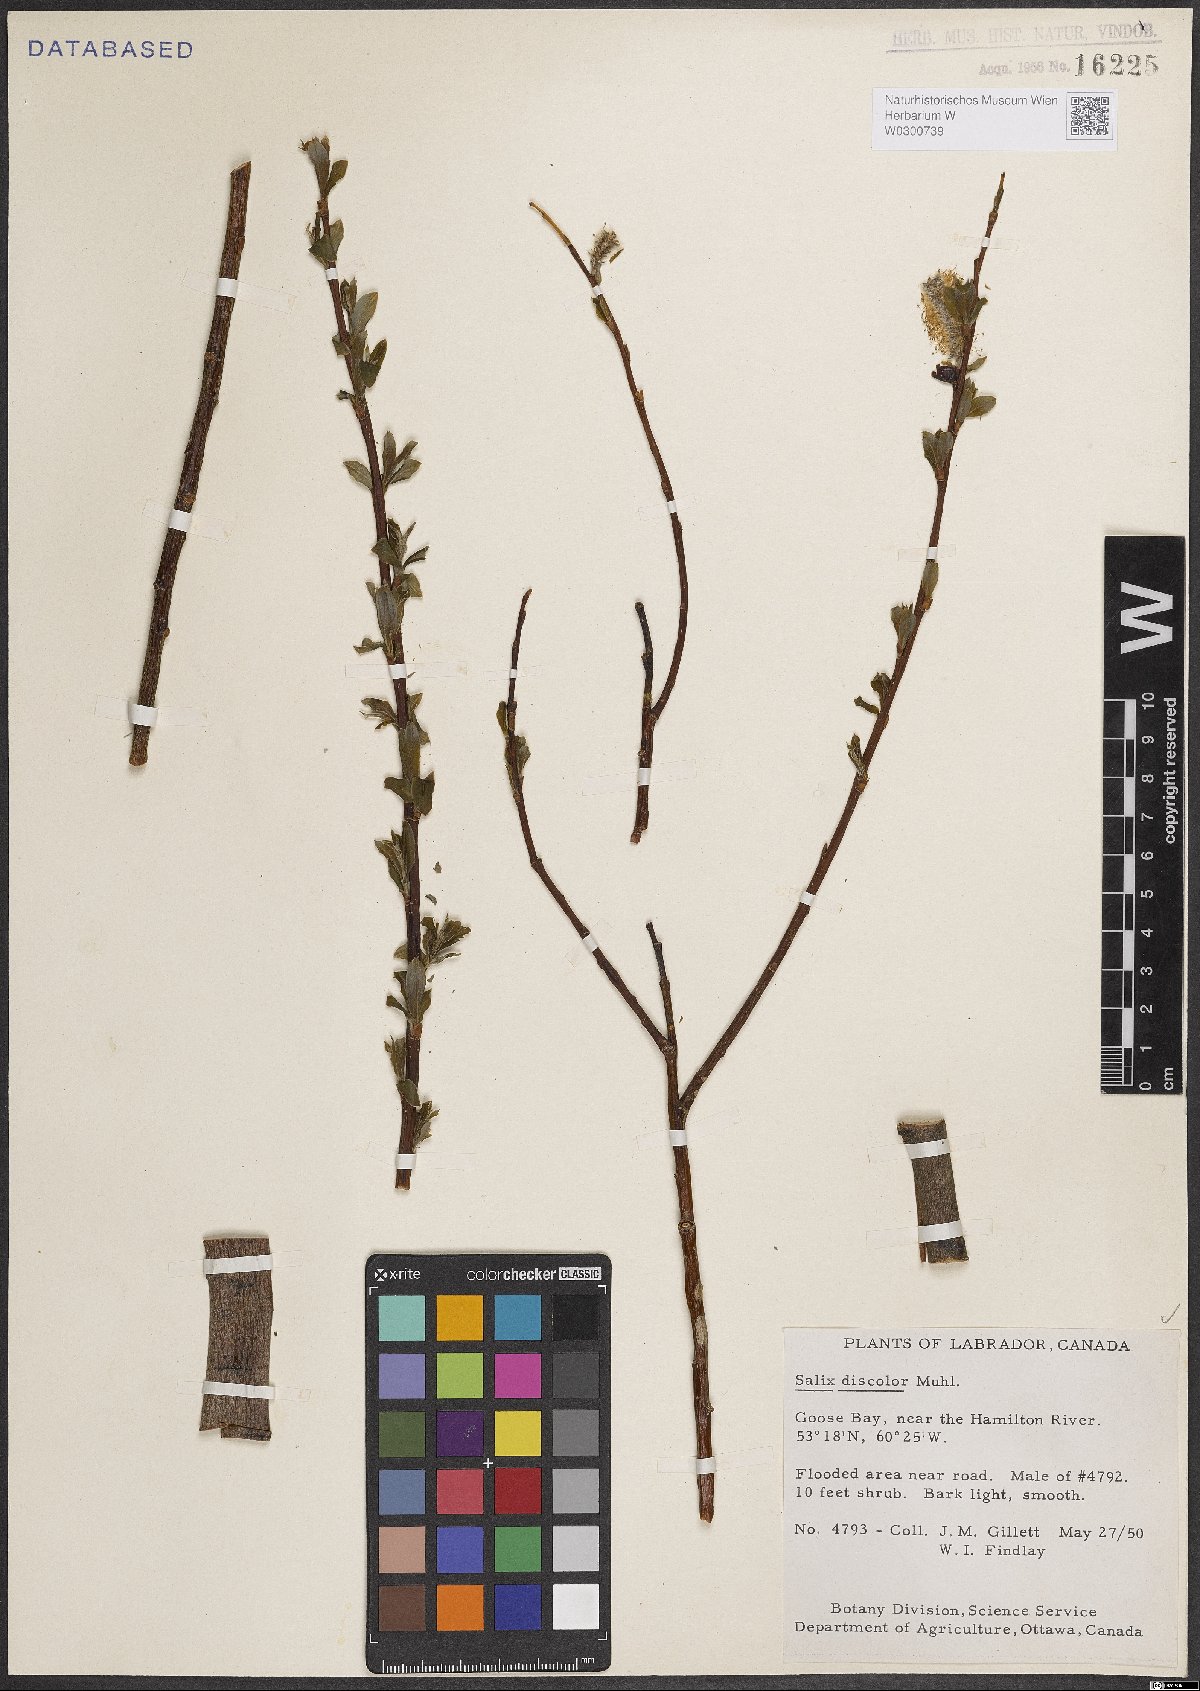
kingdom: Plantae
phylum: Tracheophyta
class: Magnoliopsida
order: Malpighiales
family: Salicaceae
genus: Salix
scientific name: Salix discolor
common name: Glaucous willow
